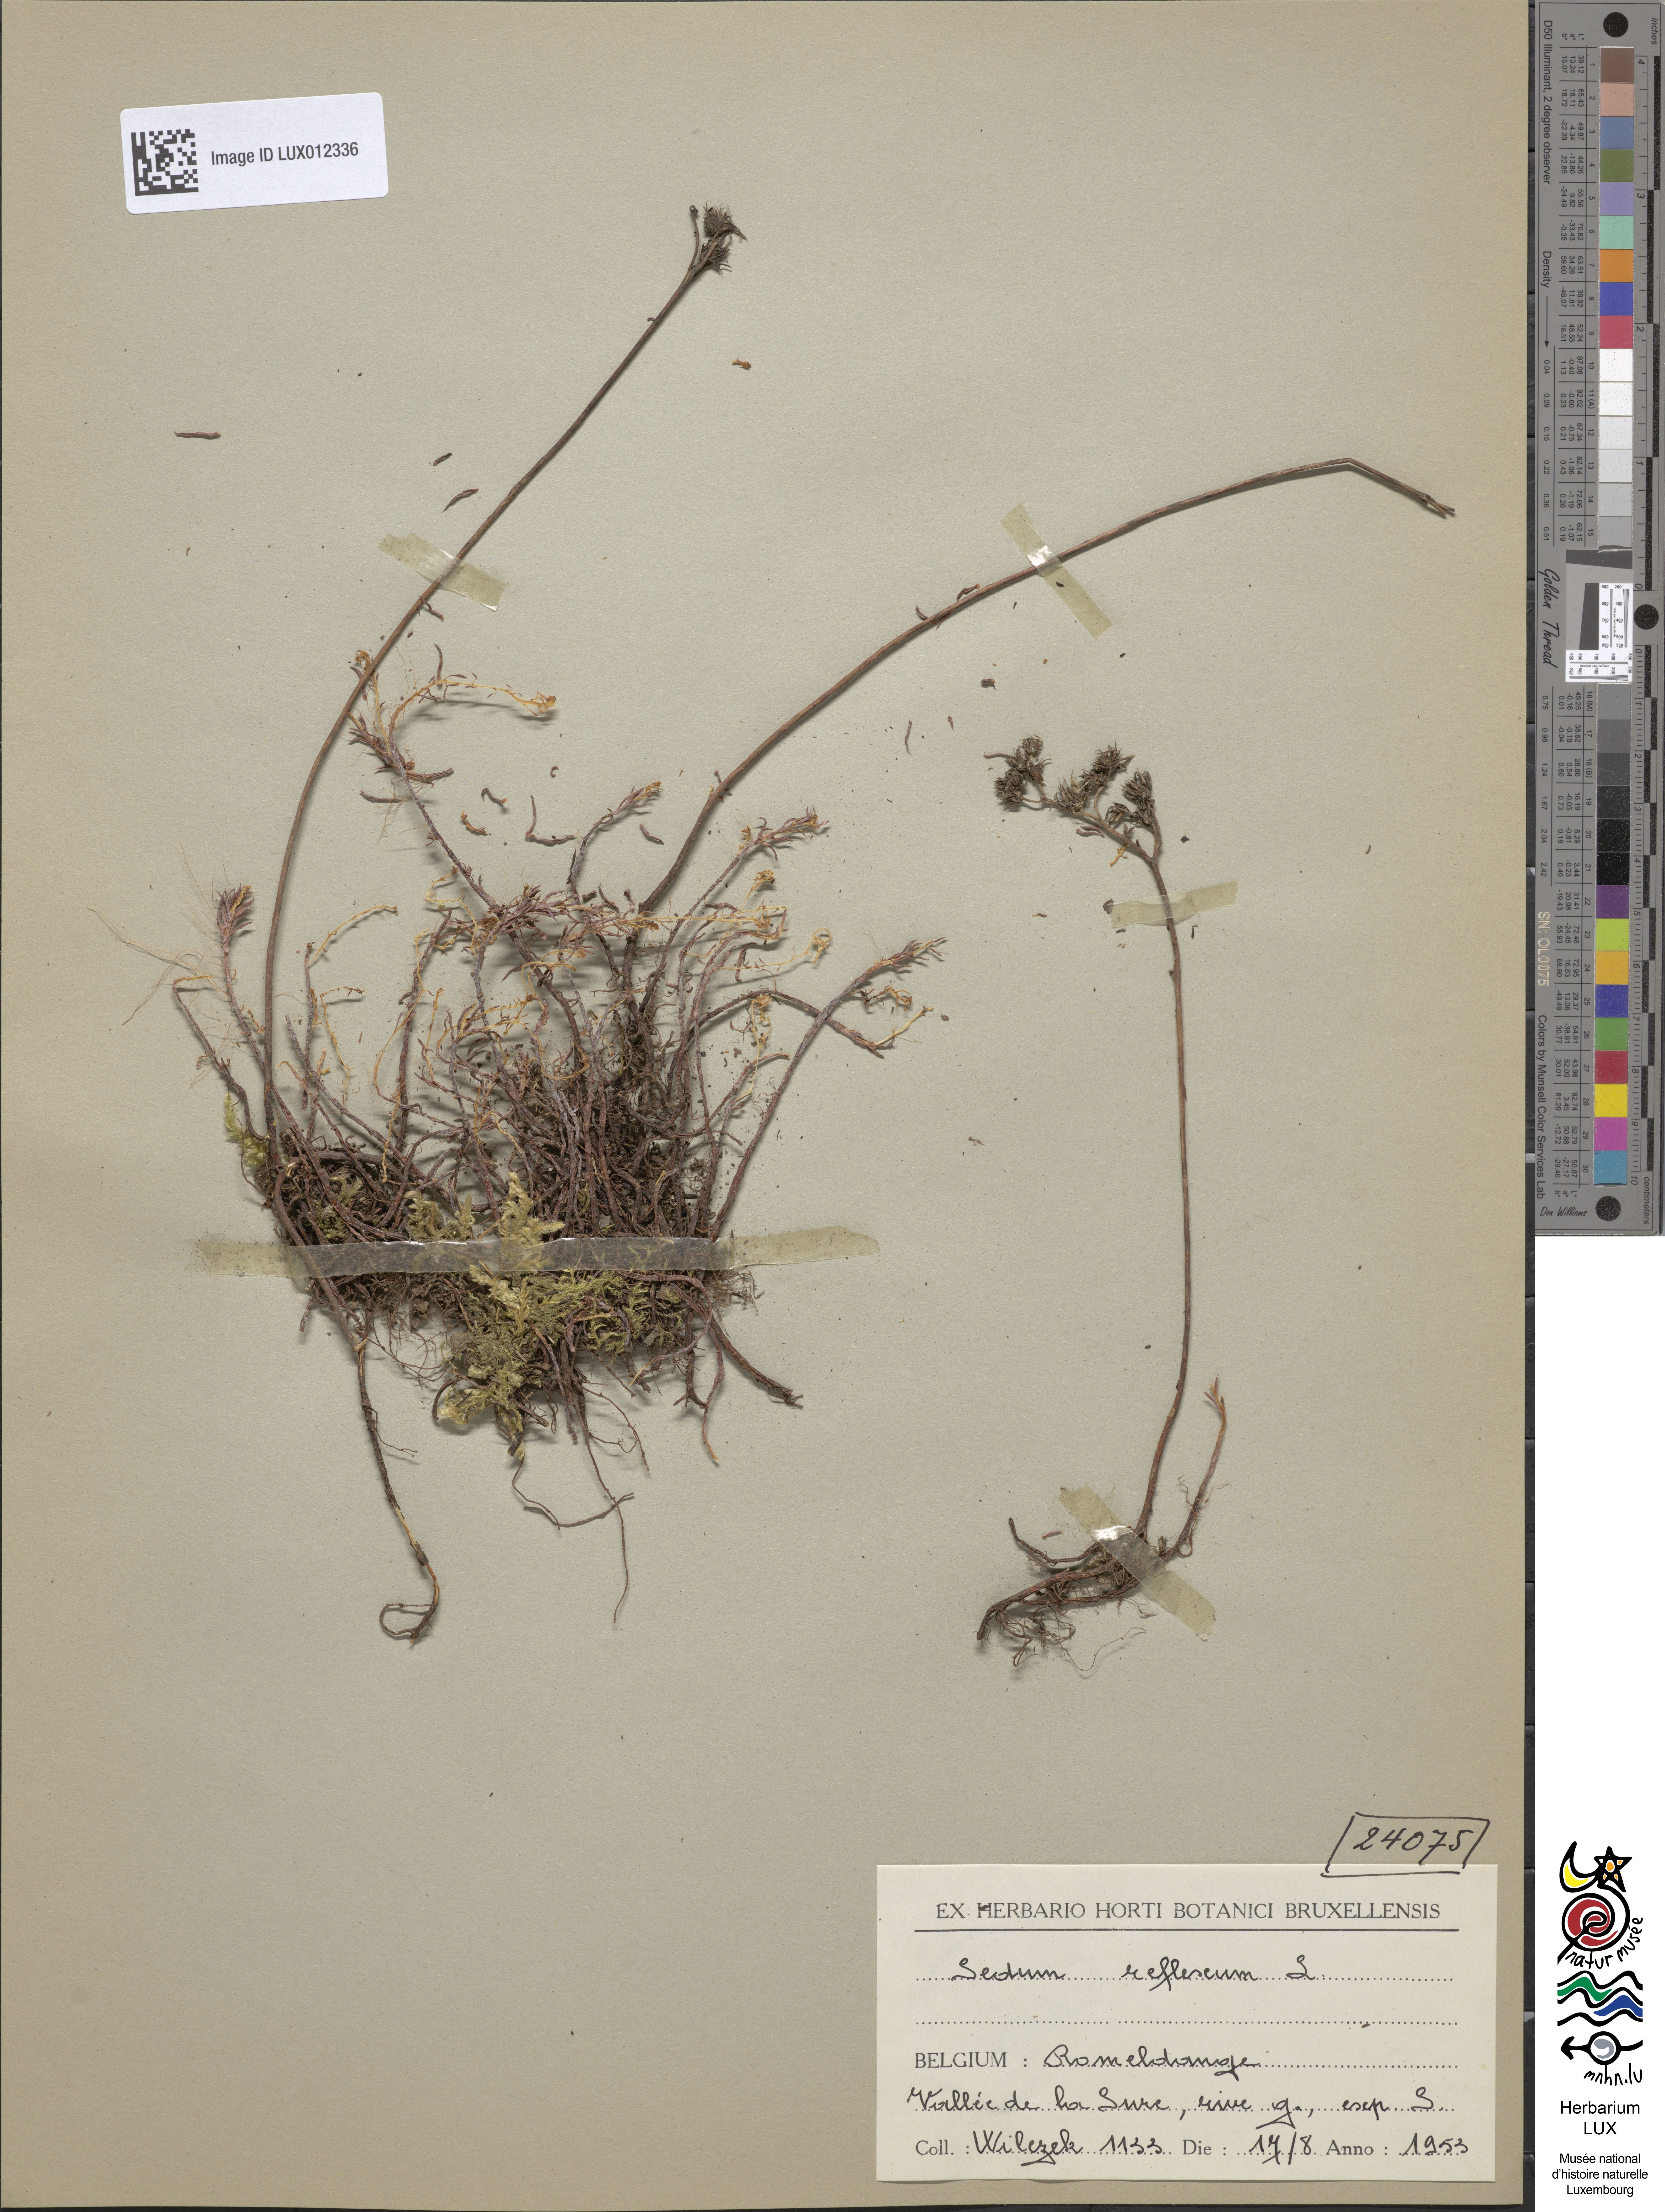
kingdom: Plantae
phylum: Tracheophyta
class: Magnoliopsida
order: Saxifragales
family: Crassulaceae
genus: Petrosedum
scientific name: Petrosedum rupestre
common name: Jenny's stonecrop
